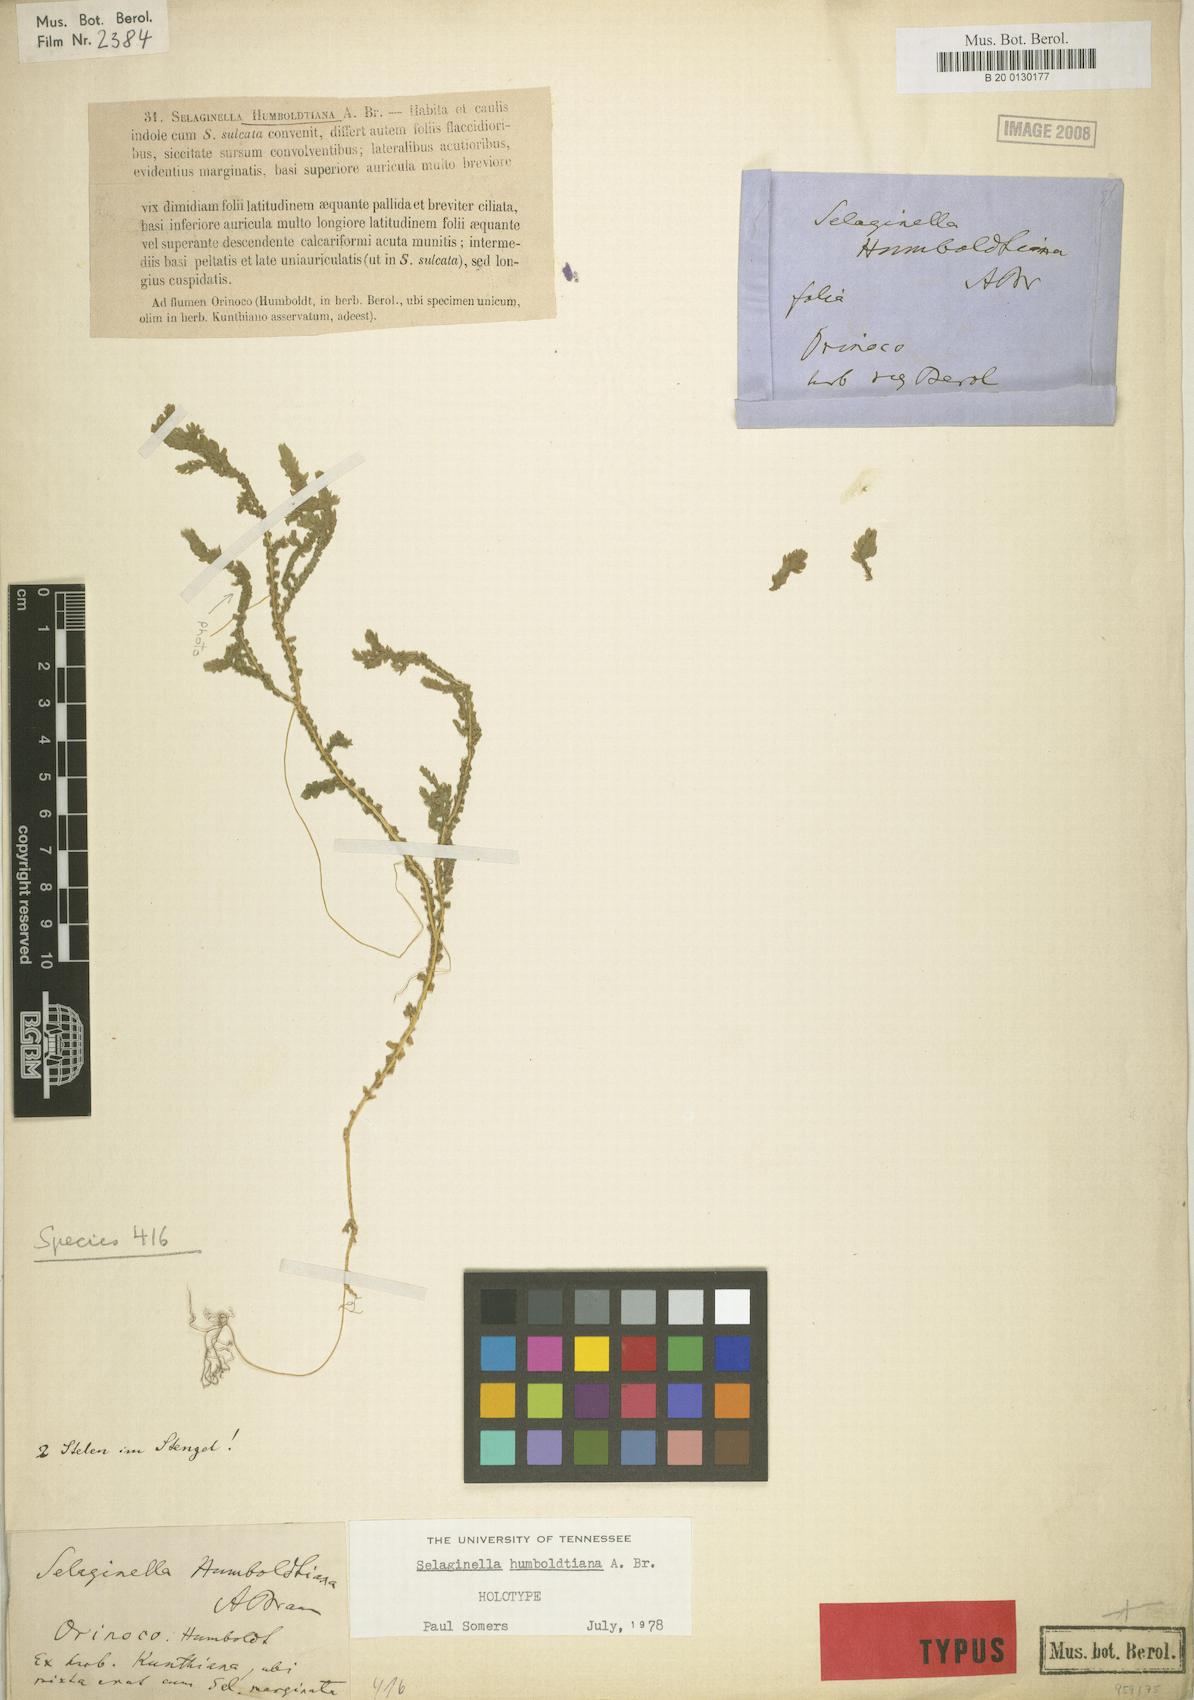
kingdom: Plantae
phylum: Tracheophyta
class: Lycopodiopsida
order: Selaginellales
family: Selaginellaceae
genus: Selaginella
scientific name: Selaginella humboldtiana
